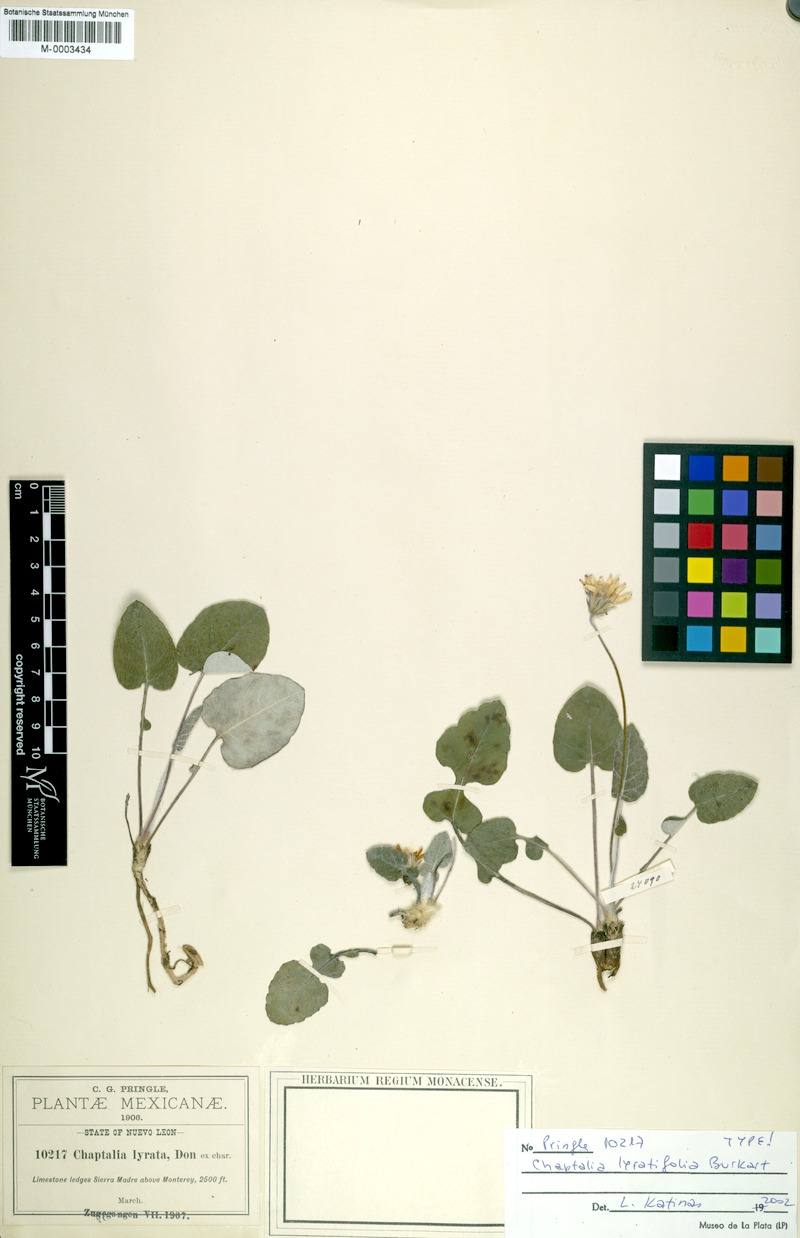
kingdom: Plantae
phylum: Tracheophyta
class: Magnoliopsida
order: Asterales
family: Asteraceae
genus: Chaptalia
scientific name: Chaptalia lyratifolia
